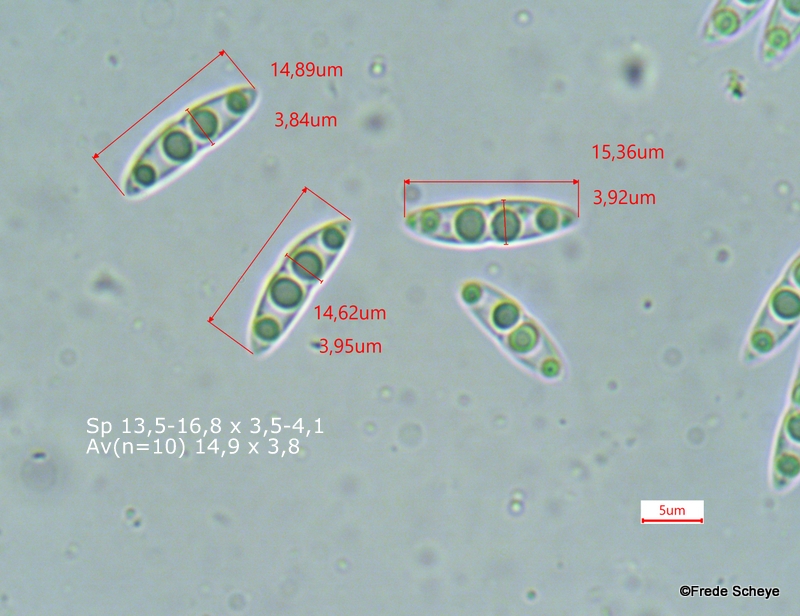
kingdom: Fungi
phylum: Ascomycota
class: Sordariomycetes
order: Diaporthales
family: Diaporthaceae
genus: Diaporthe
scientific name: Diaporthe strumella
